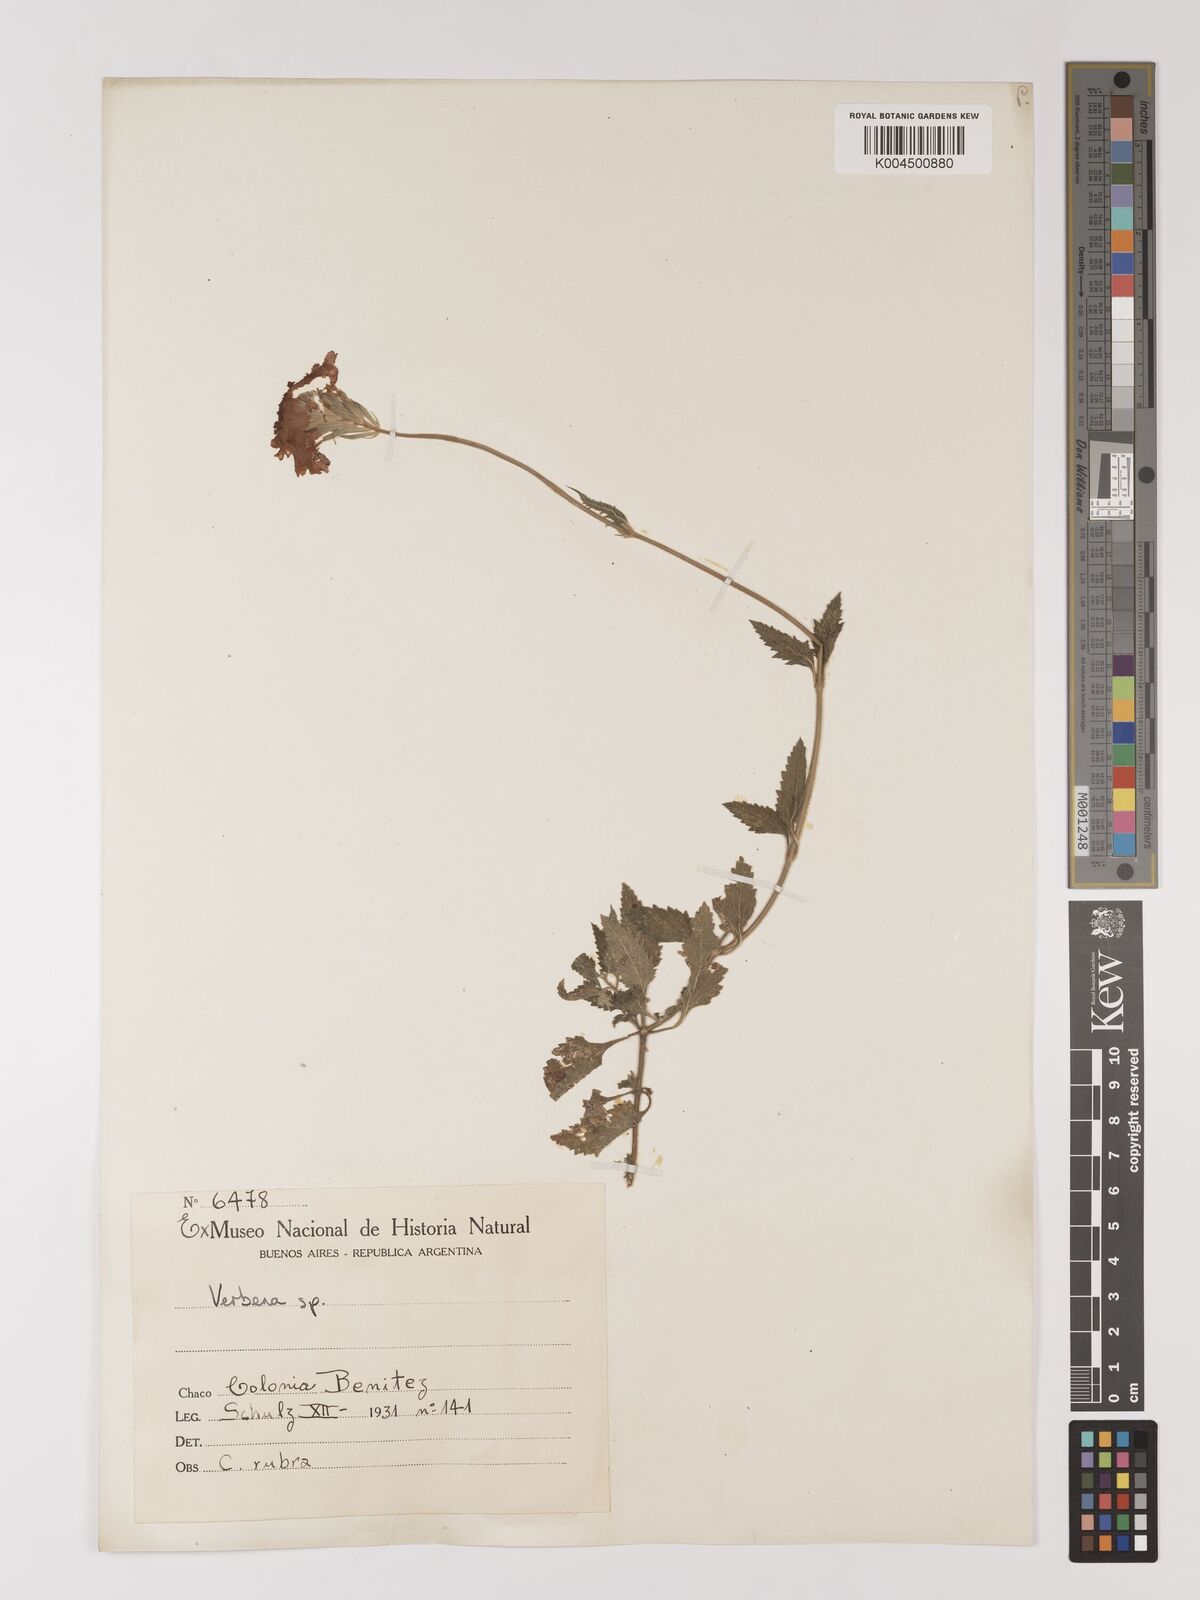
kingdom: Plantae
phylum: Tracheophyta
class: Magnoliopsida
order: Lamiales
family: Verbenaceae
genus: Verbena
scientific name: Verbena
